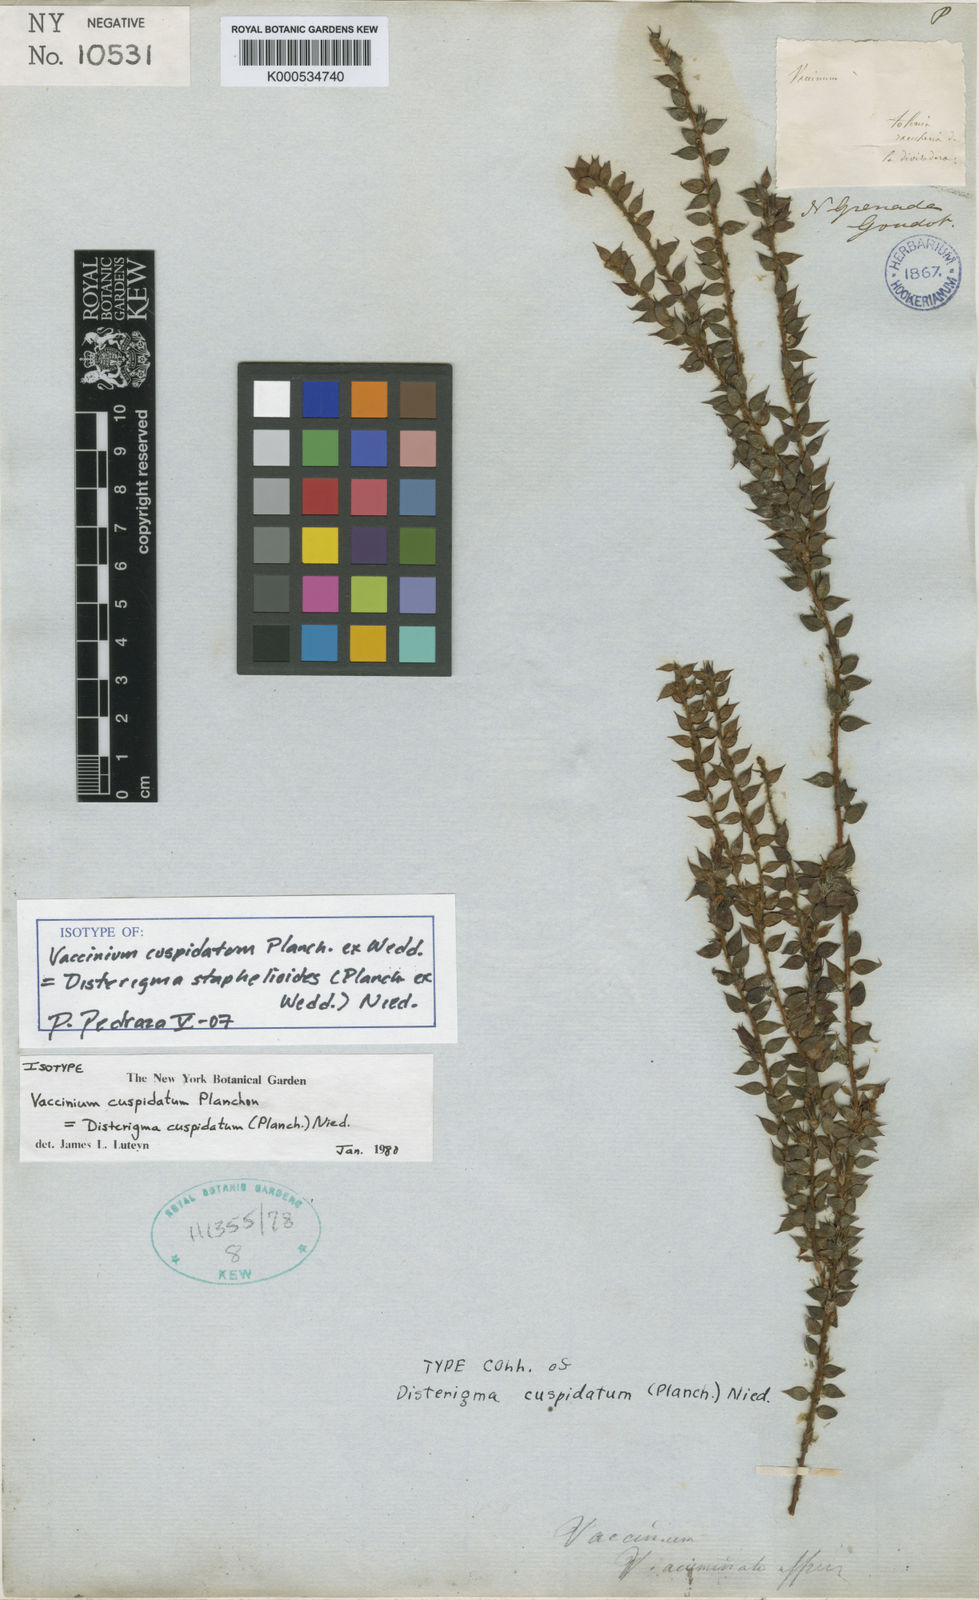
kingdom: Plantae
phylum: Tracheophyta
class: Magnoliopsida
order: Ericales
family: Ericaceae
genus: Disterigma
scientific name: Disterigma staphelioides
